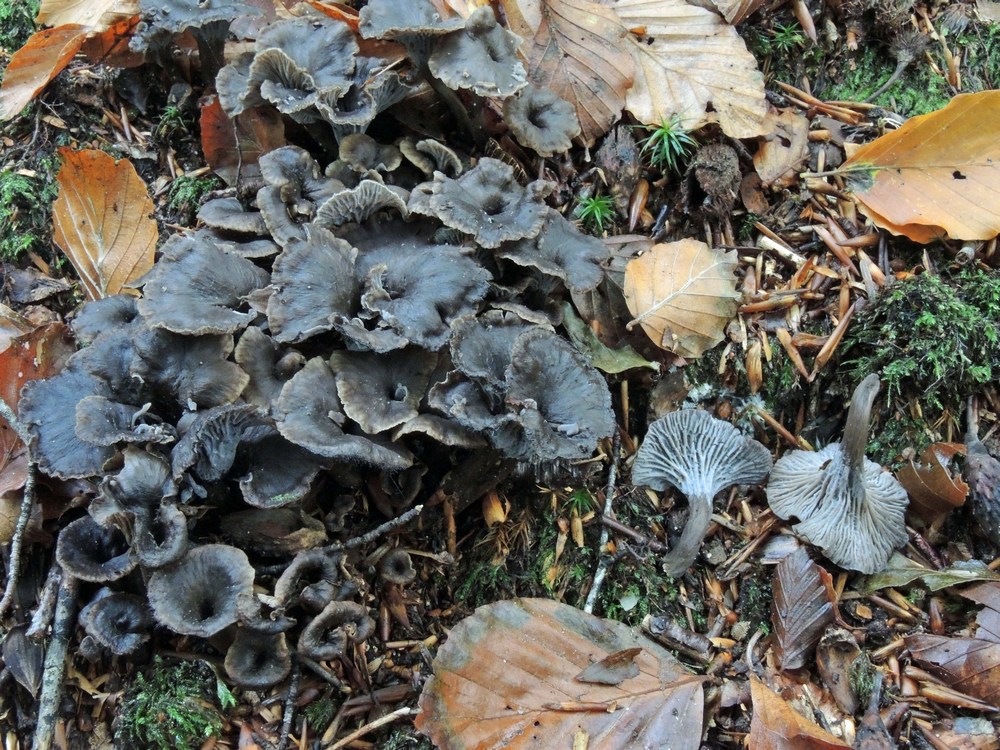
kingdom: Fungi
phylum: Basidiomycota
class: Agaricomycetes
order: Cantharellales
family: Hydnaceae
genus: Cantharellus
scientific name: Cantharellus cinereus
